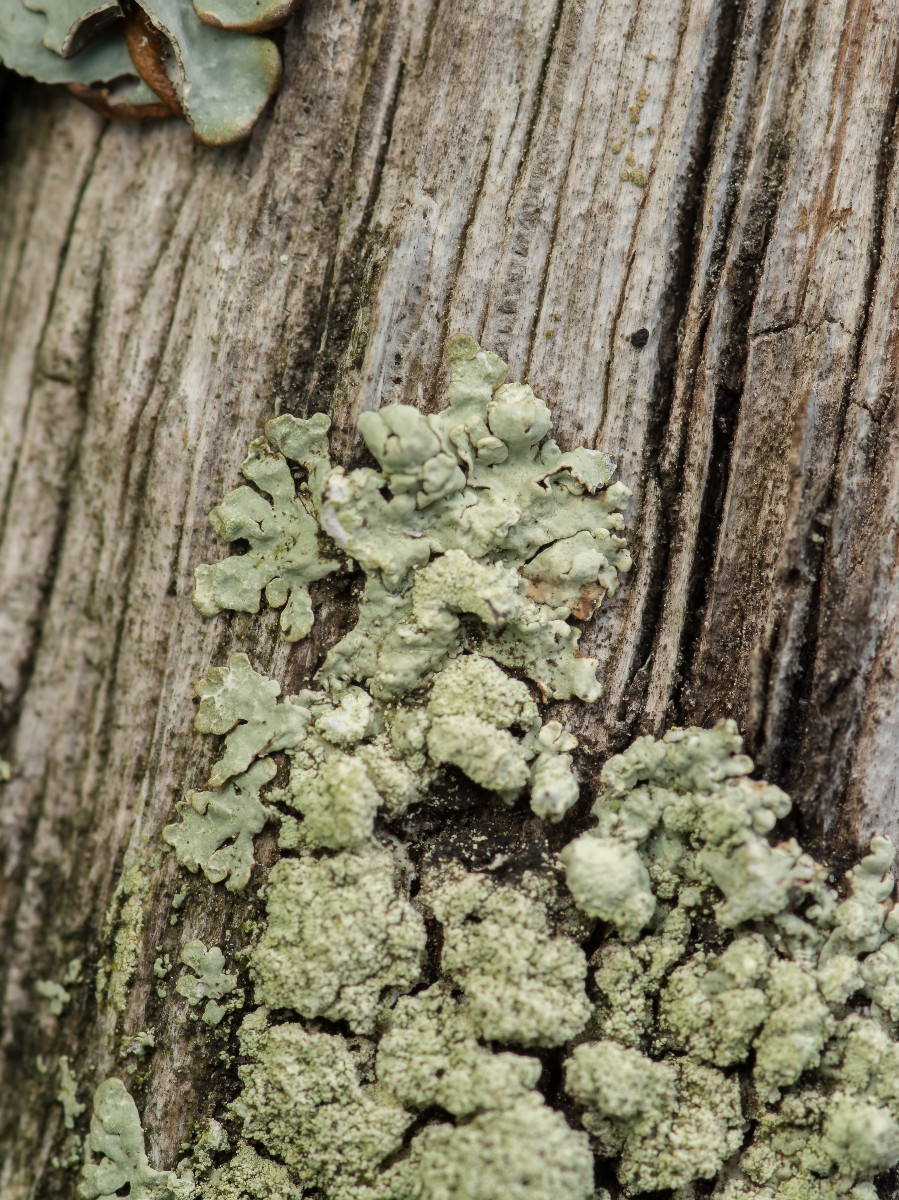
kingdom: Fungi
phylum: Ascomycota
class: Lecanoromycetes
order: Lecanorales
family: Parmeliaceae
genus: Parmeliopsis
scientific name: Parmeliopsis ambigua
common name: gul stolpelav
